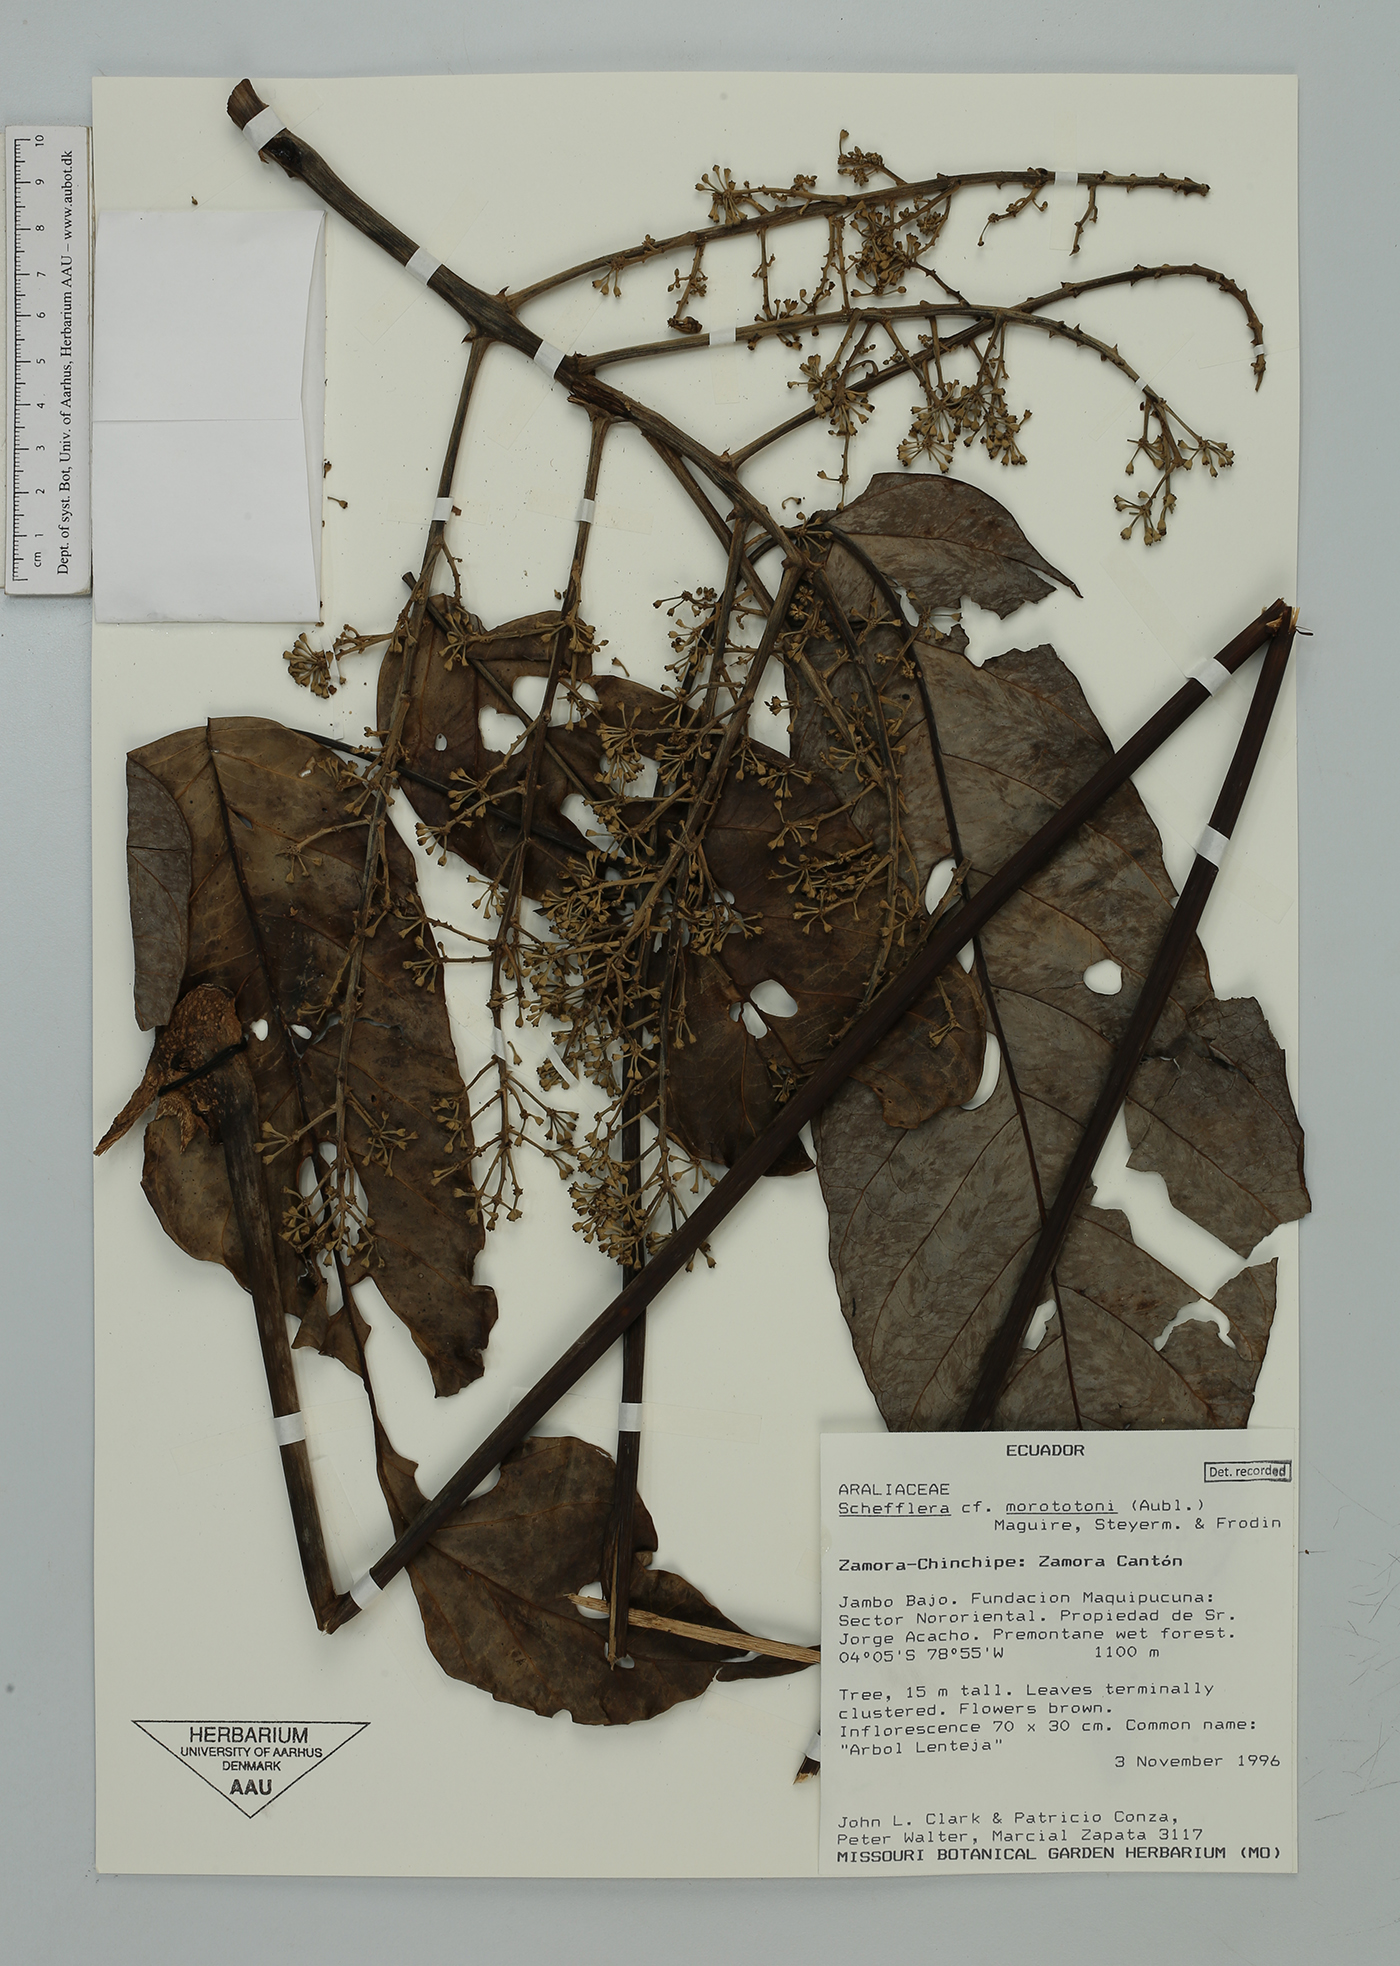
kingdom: Plantae
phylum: Tracheophyta
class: Magnoliopsida
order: Apiales
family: Araliaceae
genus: Didymopanax
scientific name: Didymopanax morototoni
